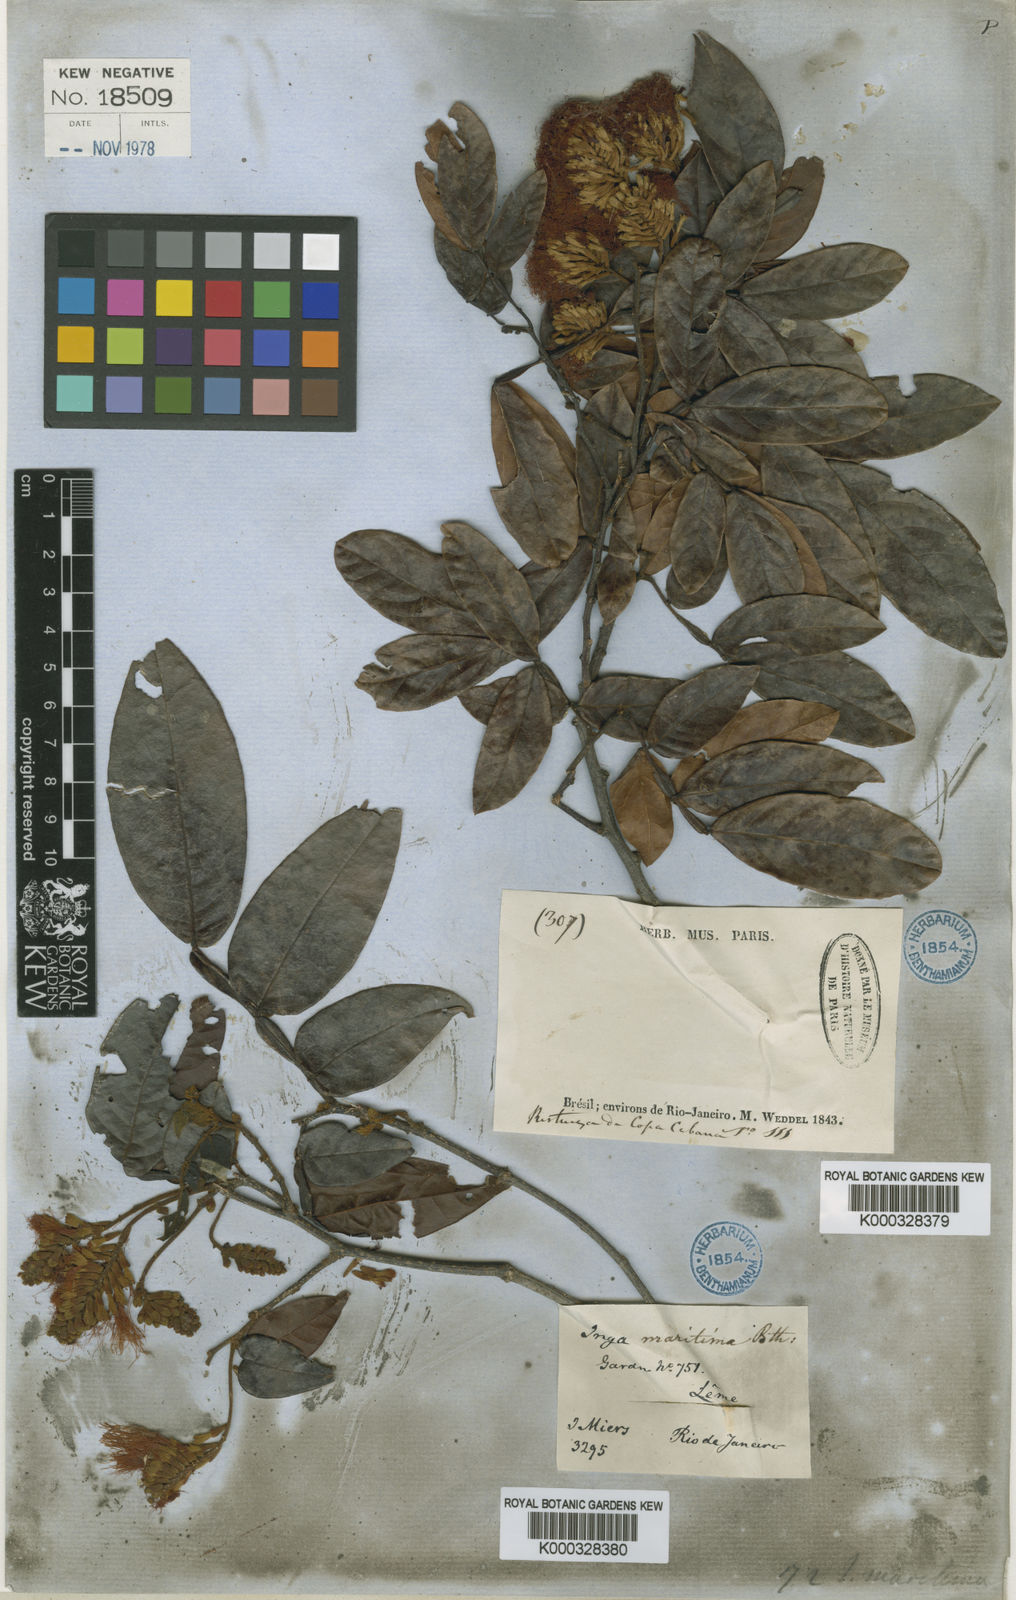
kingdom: Plantae
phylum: Tracheophyta
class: Magnoliopsida
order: Fabales
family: Fabaceae
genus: Inga
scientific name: Inga maritima
